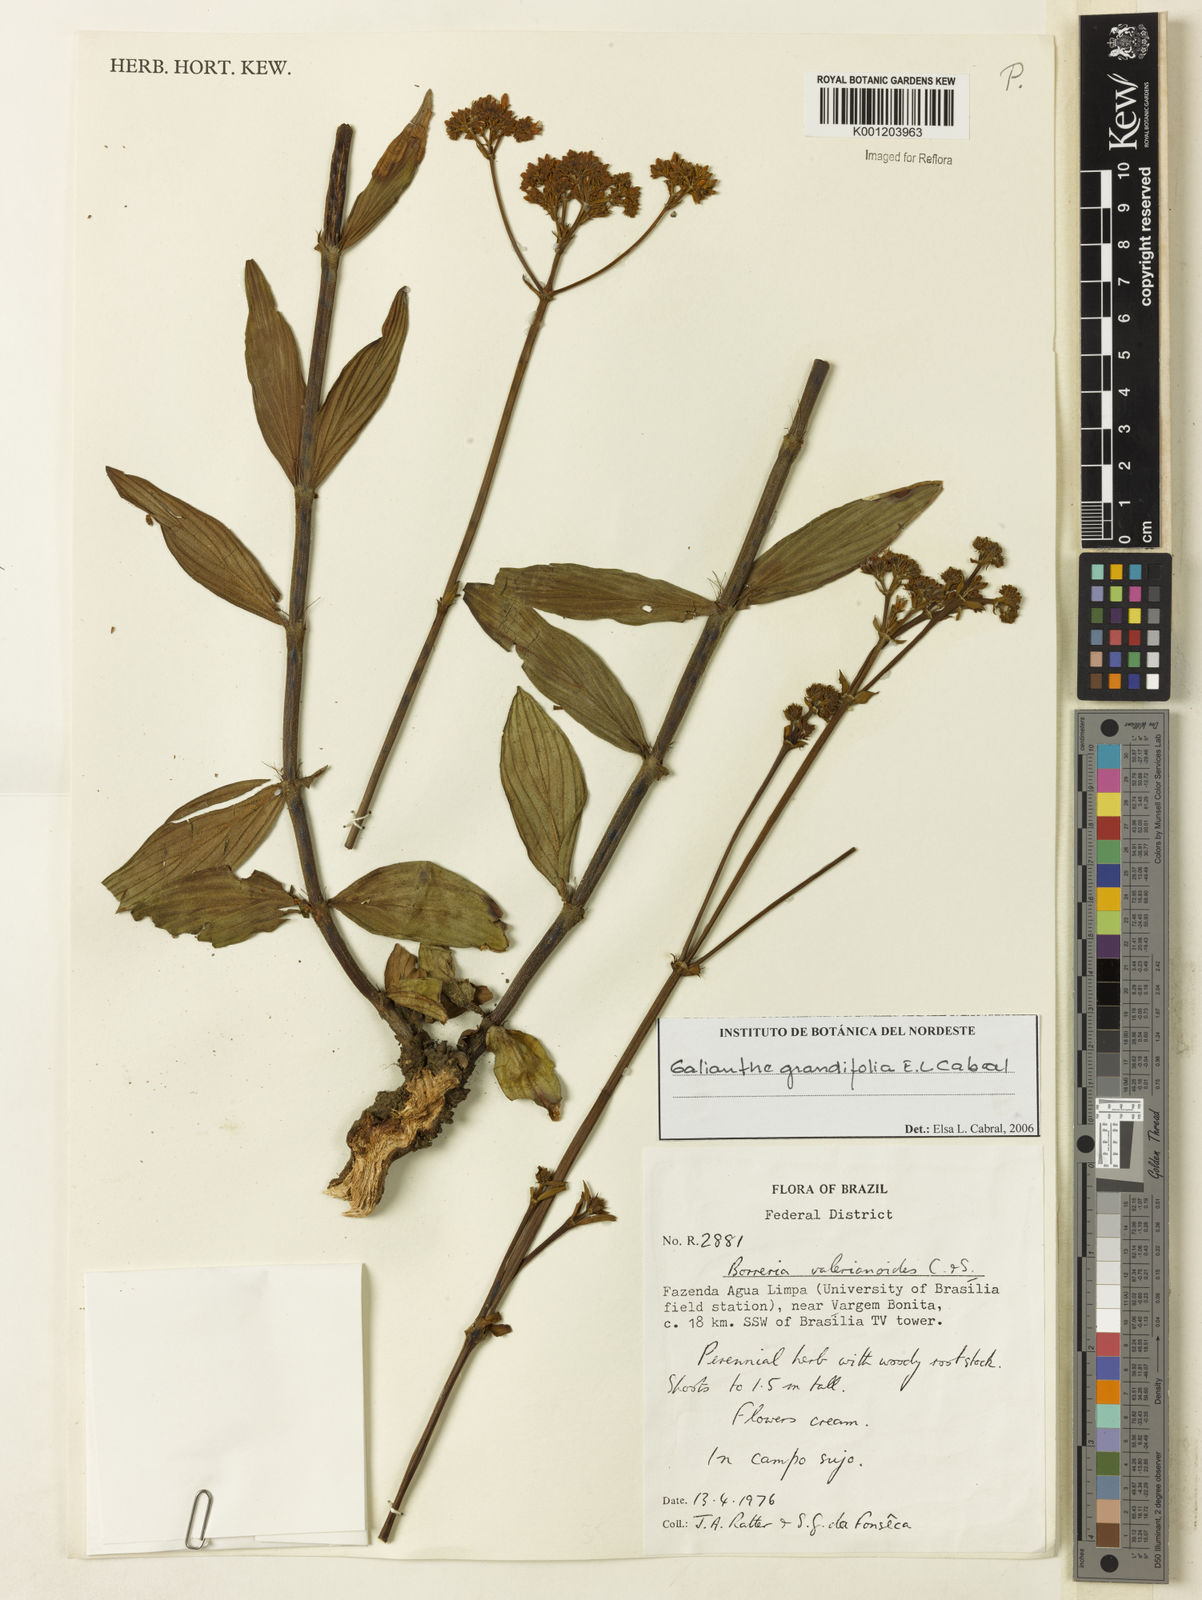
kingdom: Plantae
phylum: Tracheophyta
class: Magnoliopsida
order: Gentianales
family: Rubiaceae
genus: Galianthe
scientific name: Galianthe grandifolia
